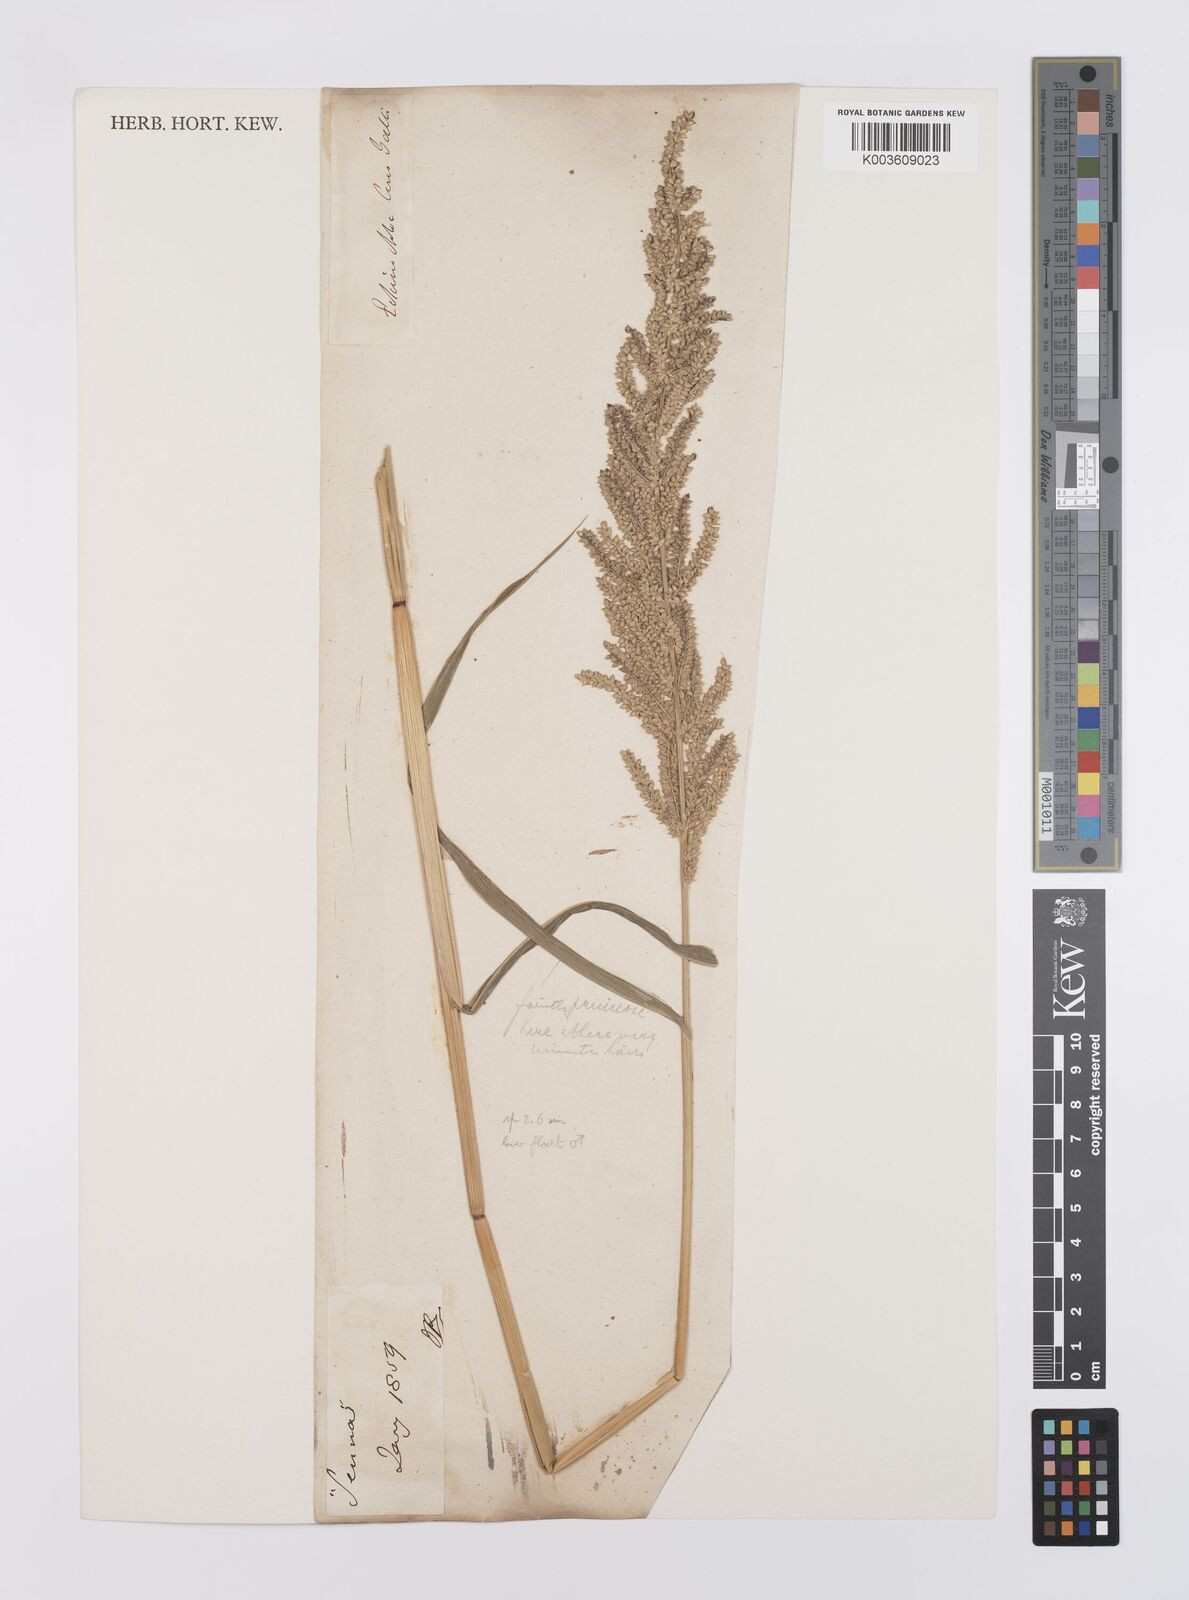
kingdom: Plantae
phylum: Tracheophyta
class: Liliopsida
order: Poales
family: Poaceae
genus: Echinochloa
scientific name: Echinochloa haploclada
